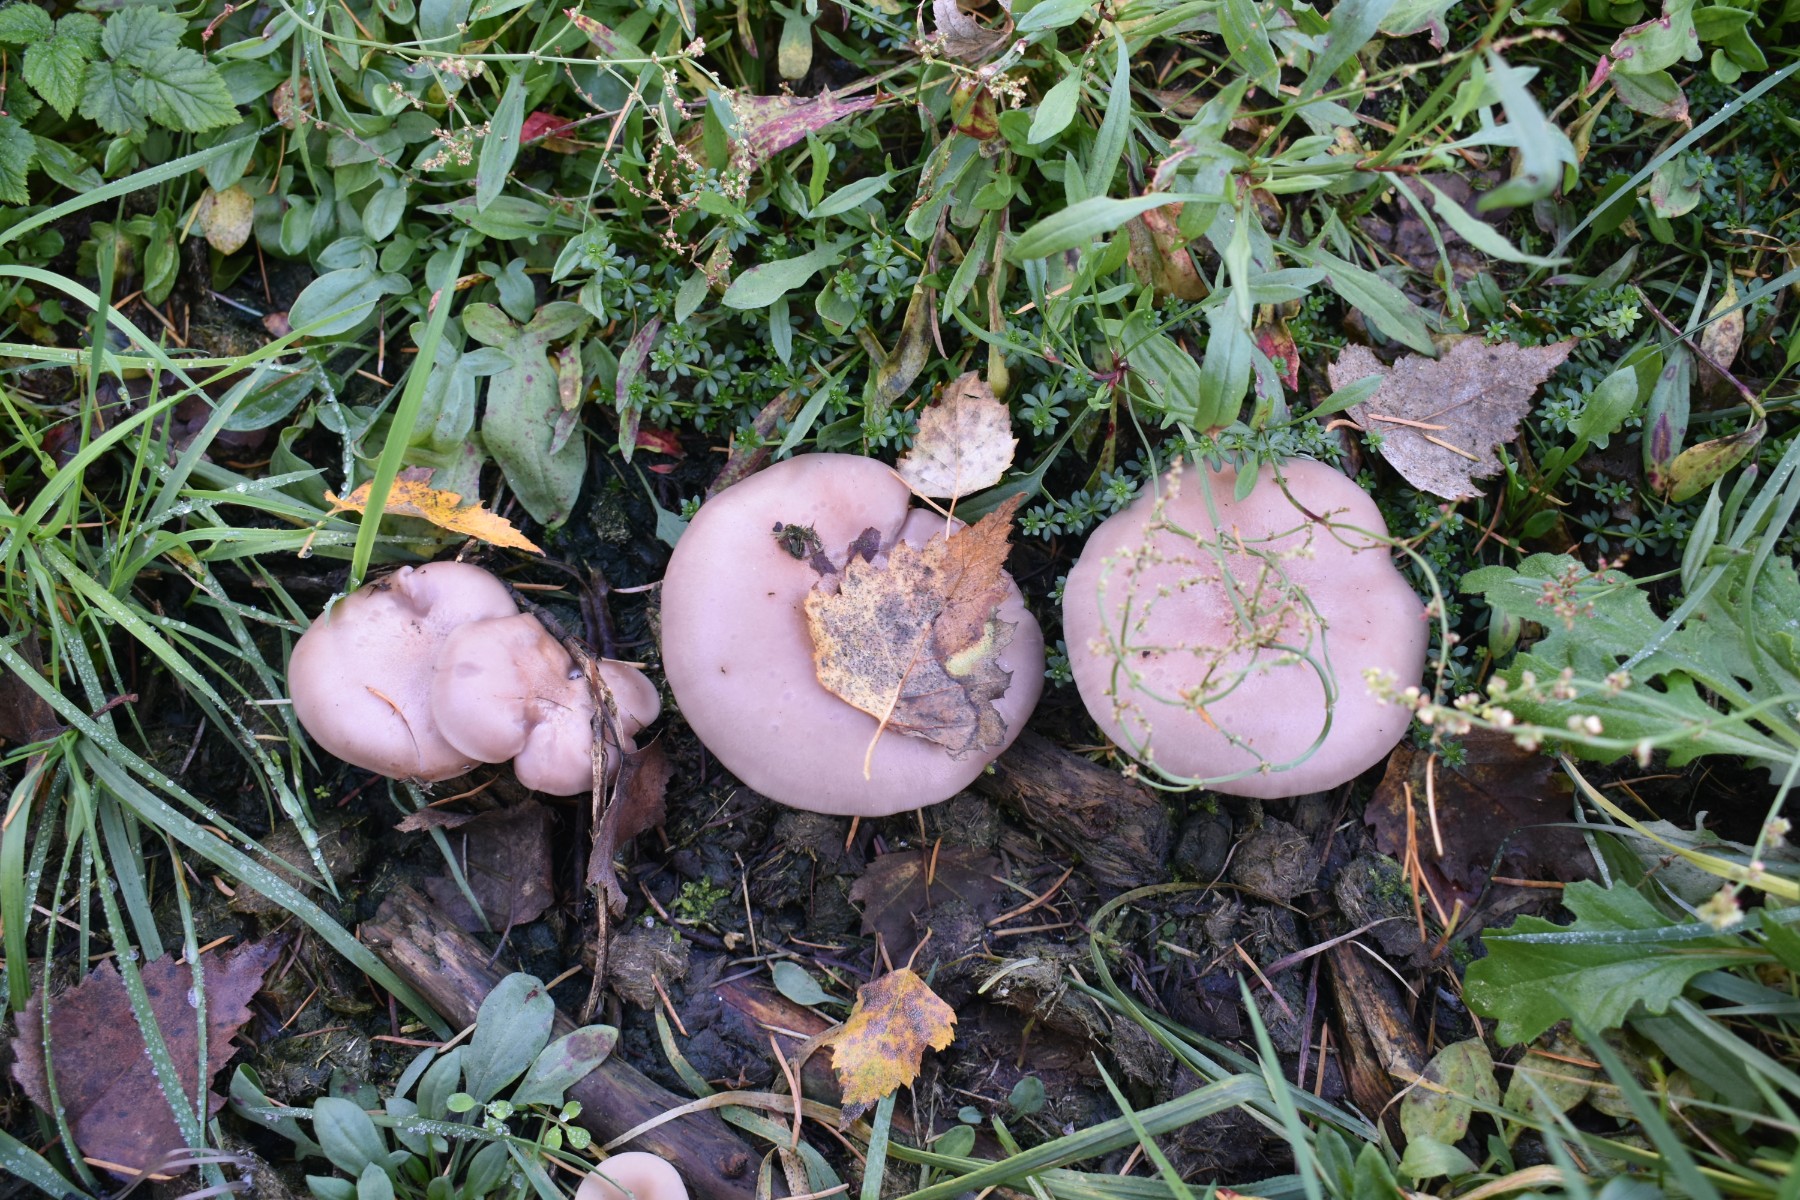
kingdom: Fungi
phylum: Basidiomycota
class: Agaricomycetes
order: Agaricales
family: Tricholomataceae
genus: Lepista
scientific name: Lepista nuda
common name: violet hekseringshat
